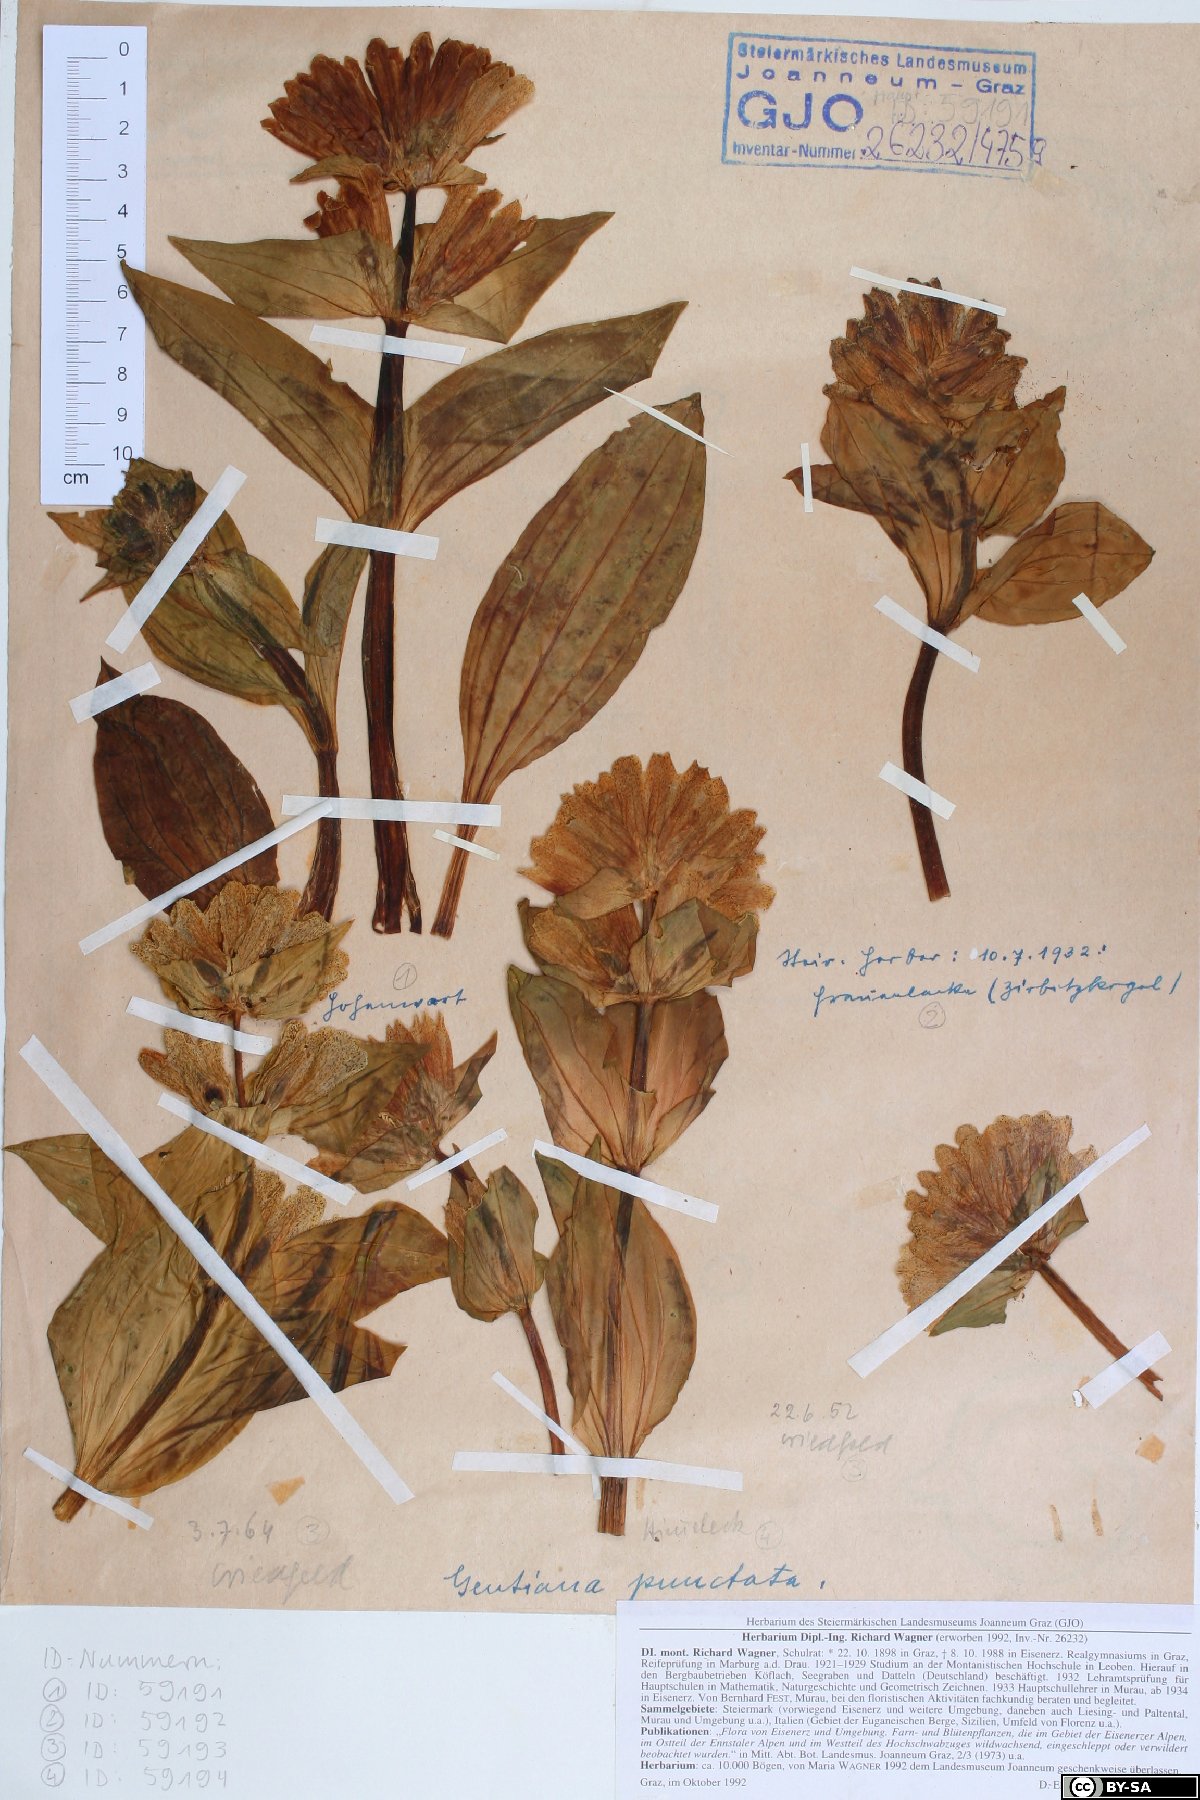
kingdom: Plantae
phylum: Tracheophyta
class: Magnoliopsida
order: Gentianales
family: Gentianaceae
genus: Gentiana
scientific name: Gentiana punctata
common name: Spotted gentian
